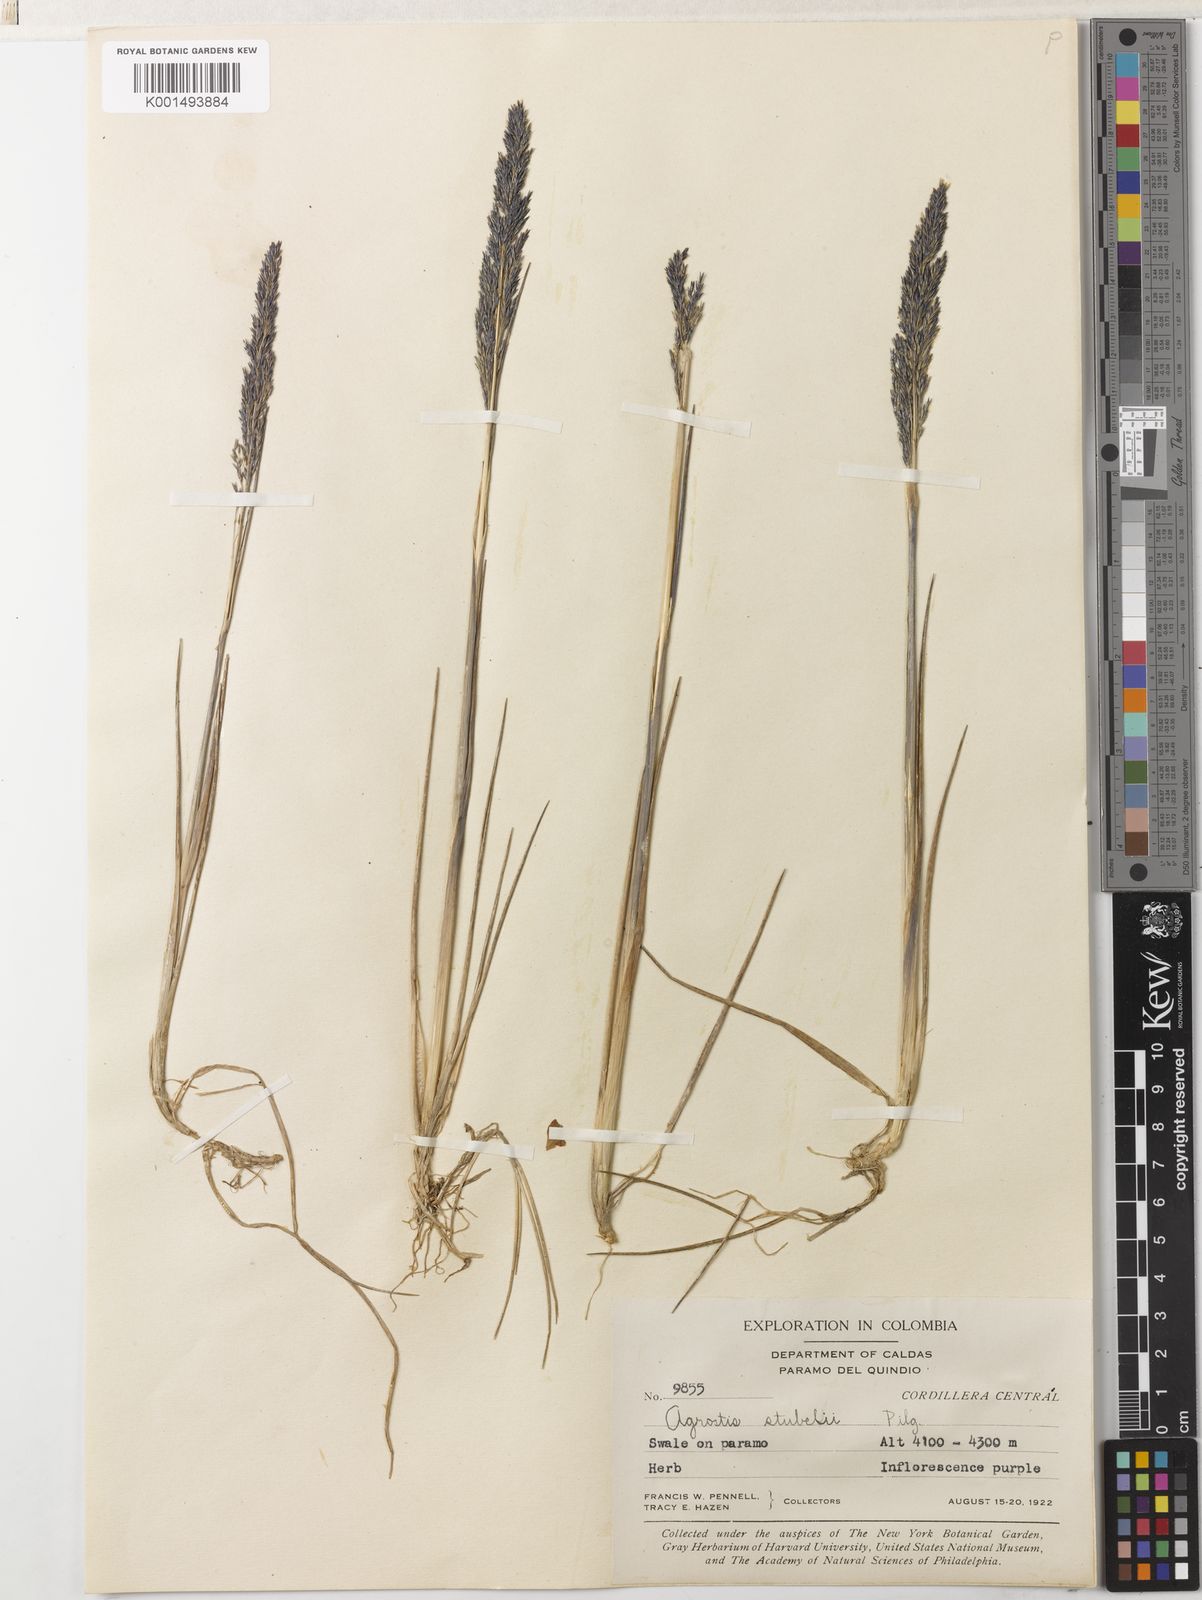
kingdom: Plantae
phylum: Tracheophyta
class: Liliopsida
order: Poales
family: Poaceae
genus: Agrostis
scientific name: Agrostis foliata
